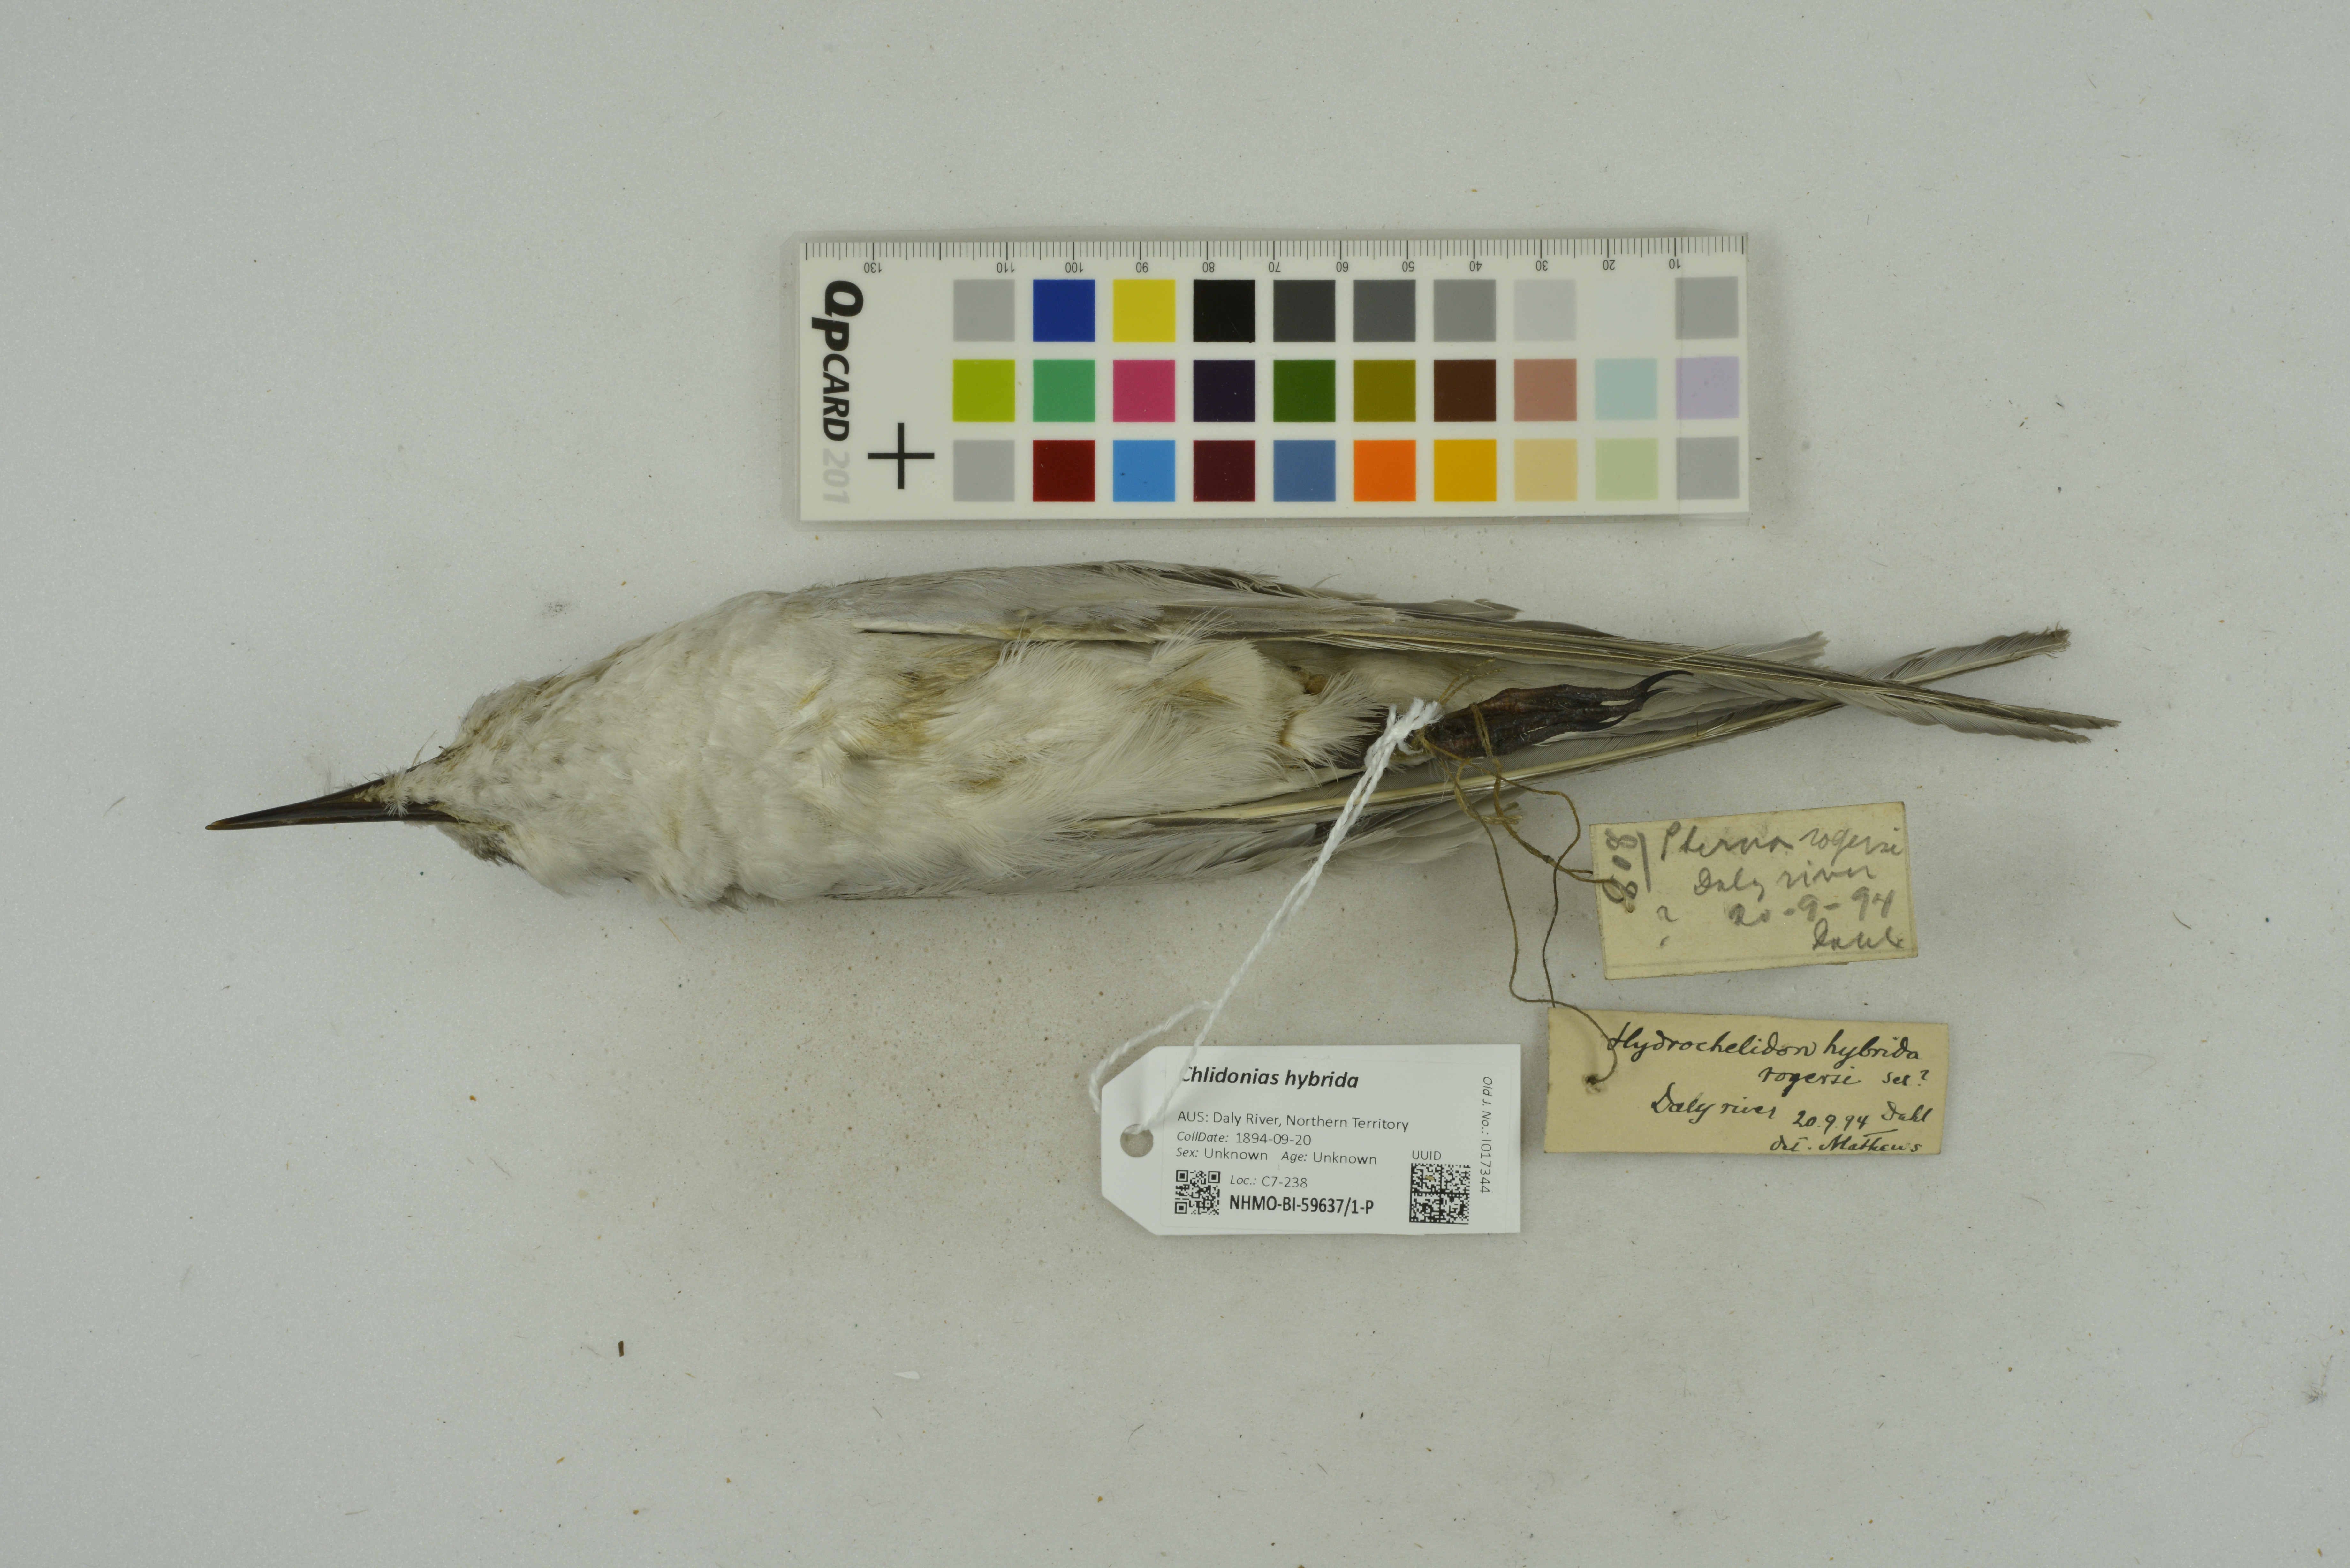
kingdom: Animalia
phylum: Chordata
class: Aves
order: Charadriiformes
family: Laridae
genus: Chlidonias
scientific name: Chlidonias hybrida
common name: Whiskered tern
